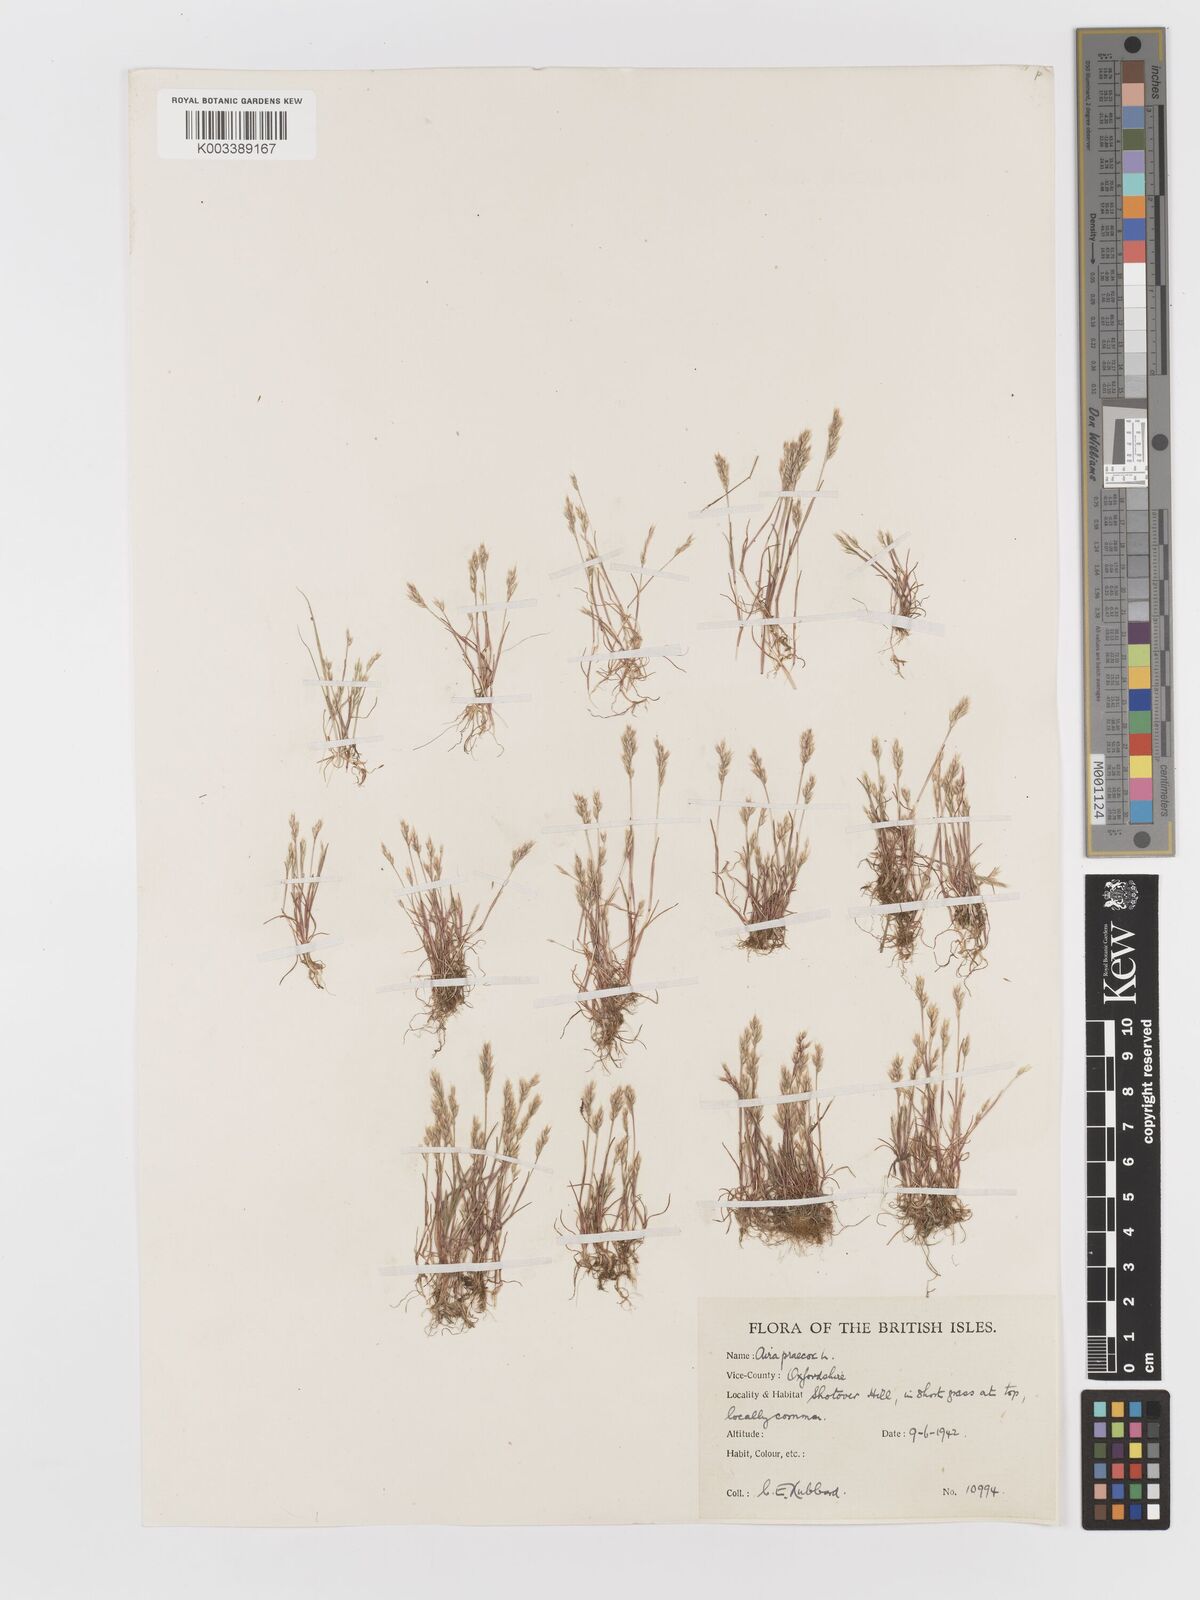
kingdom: Plantae
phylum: Tracheophyta
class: Liliopsida
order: Poales
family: Poaceae
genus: Aira
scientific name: Aira praecox
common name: Early hair-grass
